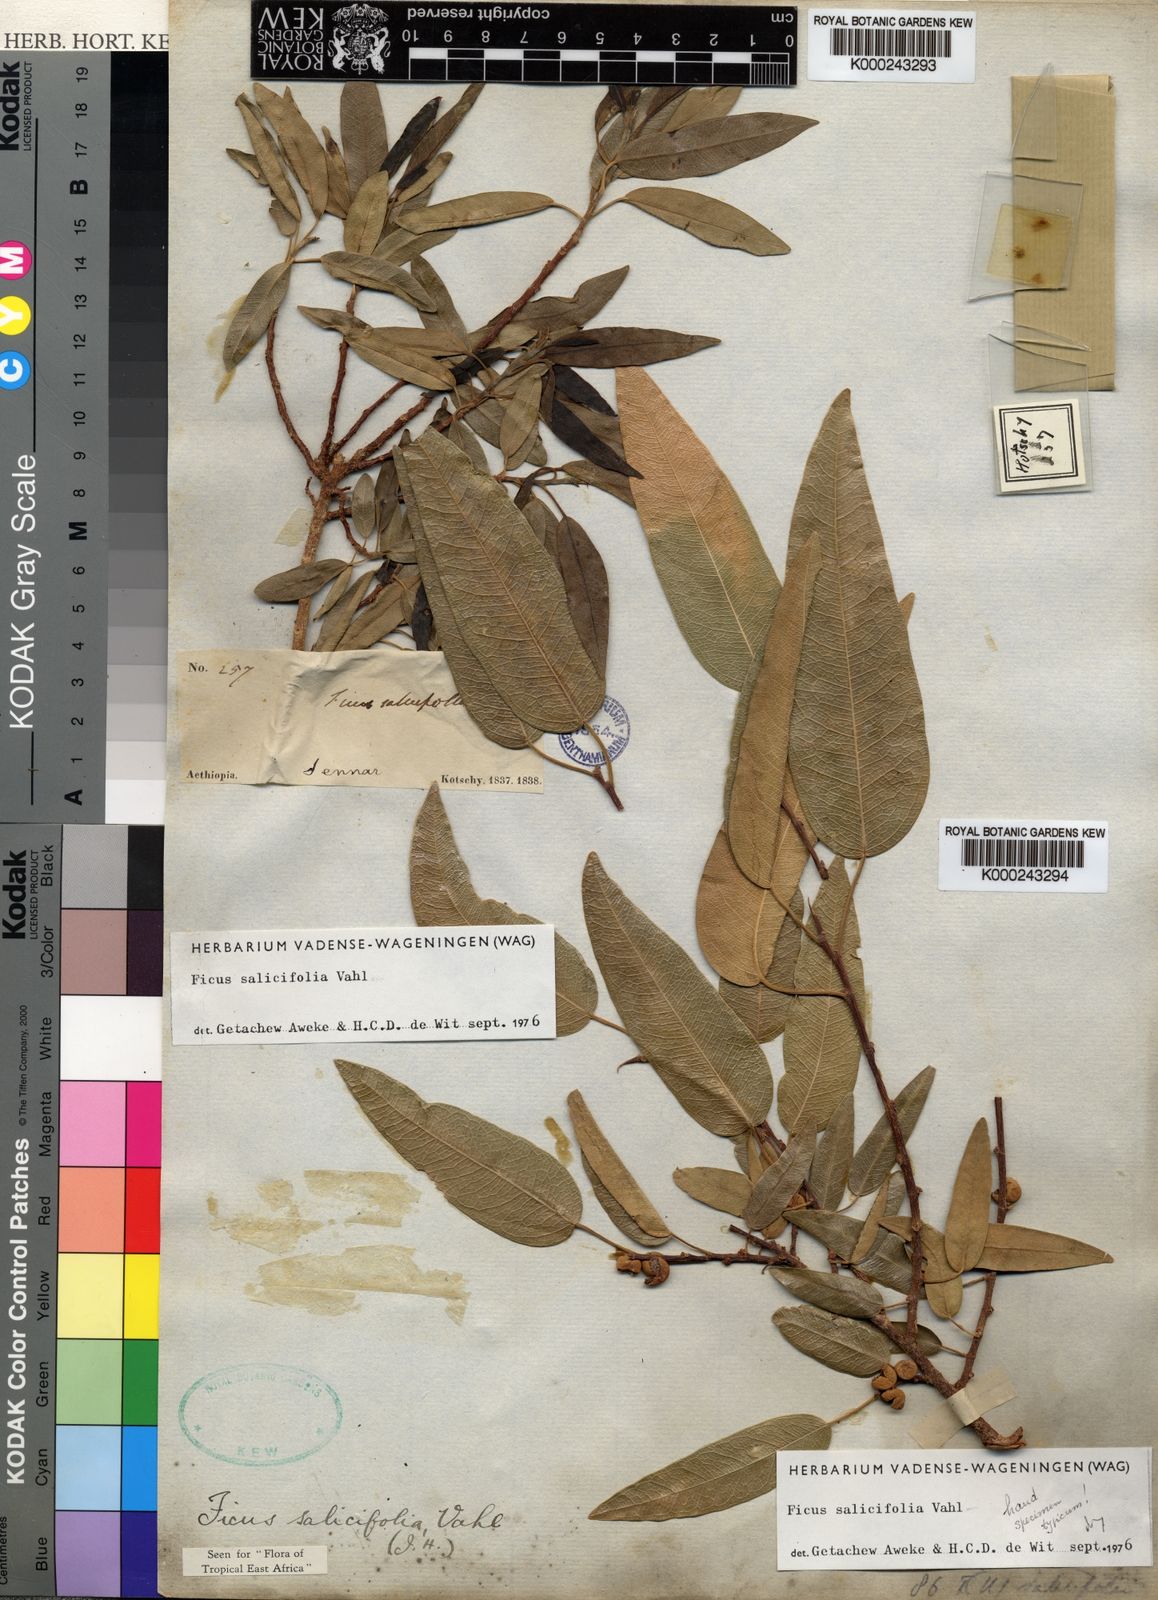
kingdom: Plantae
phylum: Tracheophyta
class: Magnoliopsida
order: Rosales
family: Moraceae
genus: Ficus
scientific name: Ficus salicifolia
